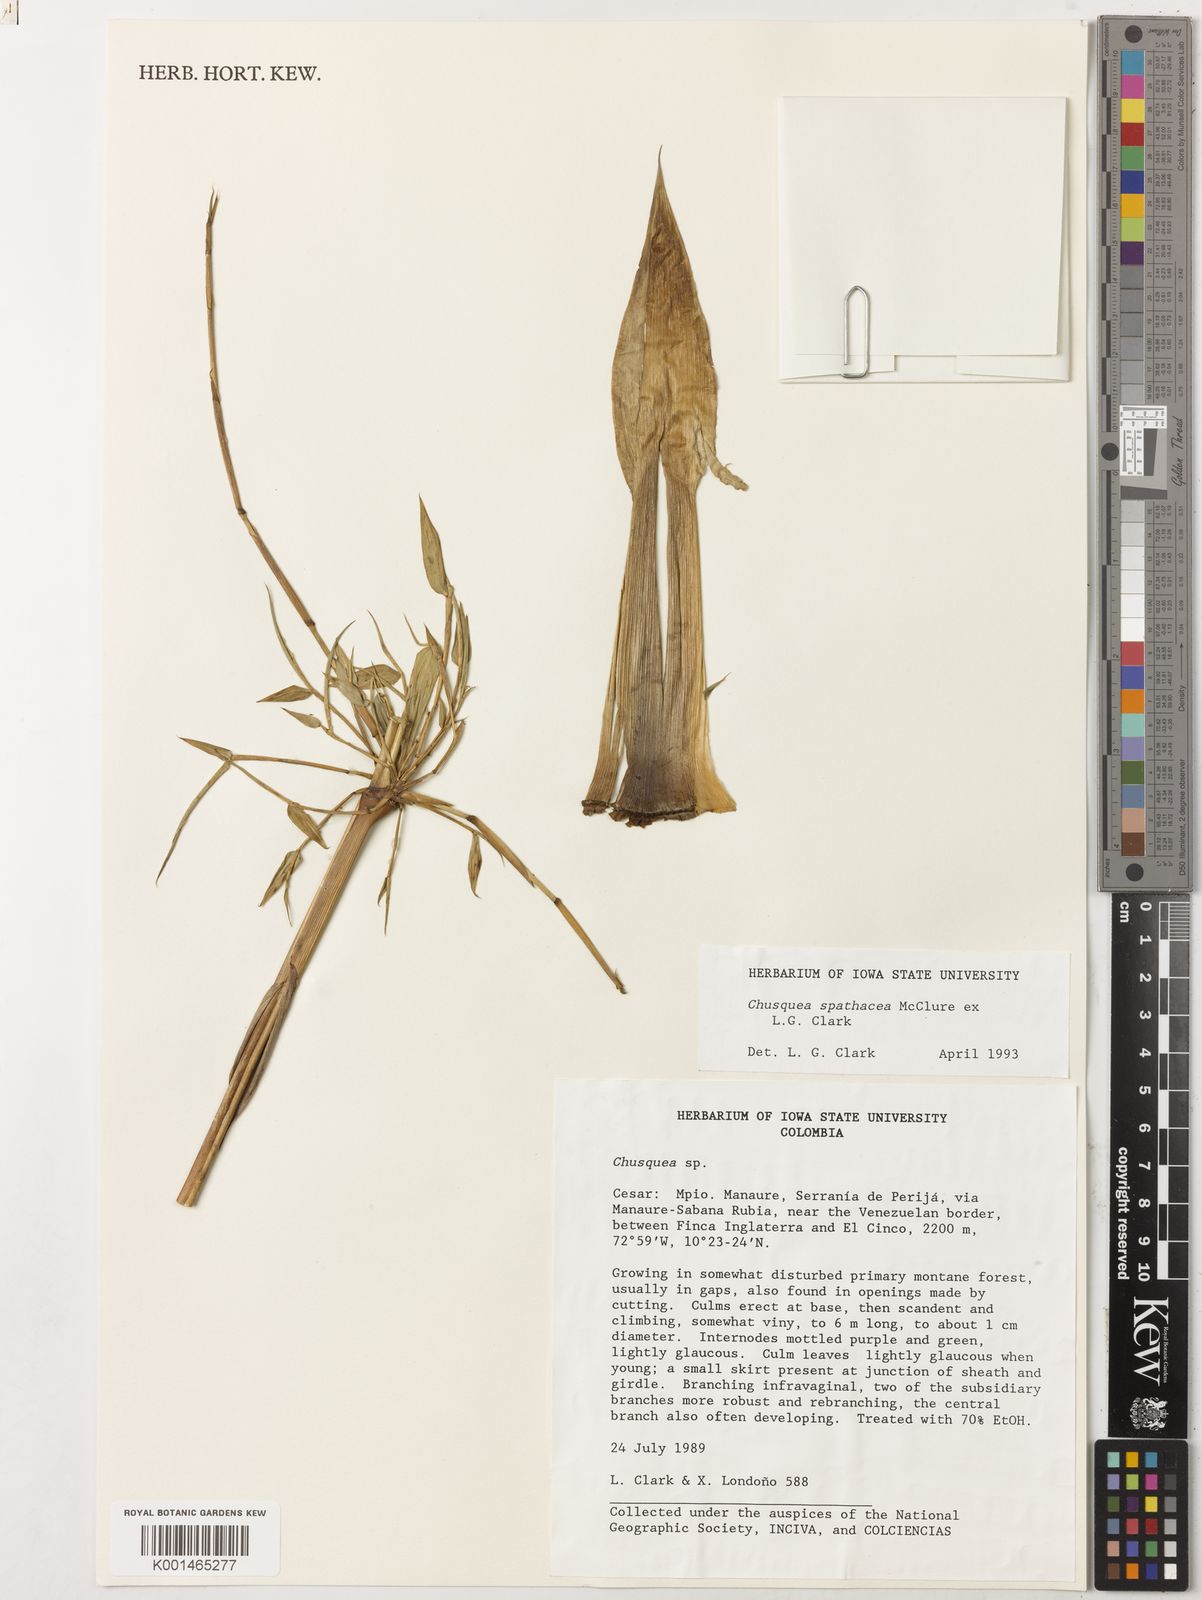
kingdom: Plantae
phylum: Tracheophyta
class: Liliopsida
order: Poales
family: Poaceae
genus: Chusquea
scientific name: Chusquea spathacea
